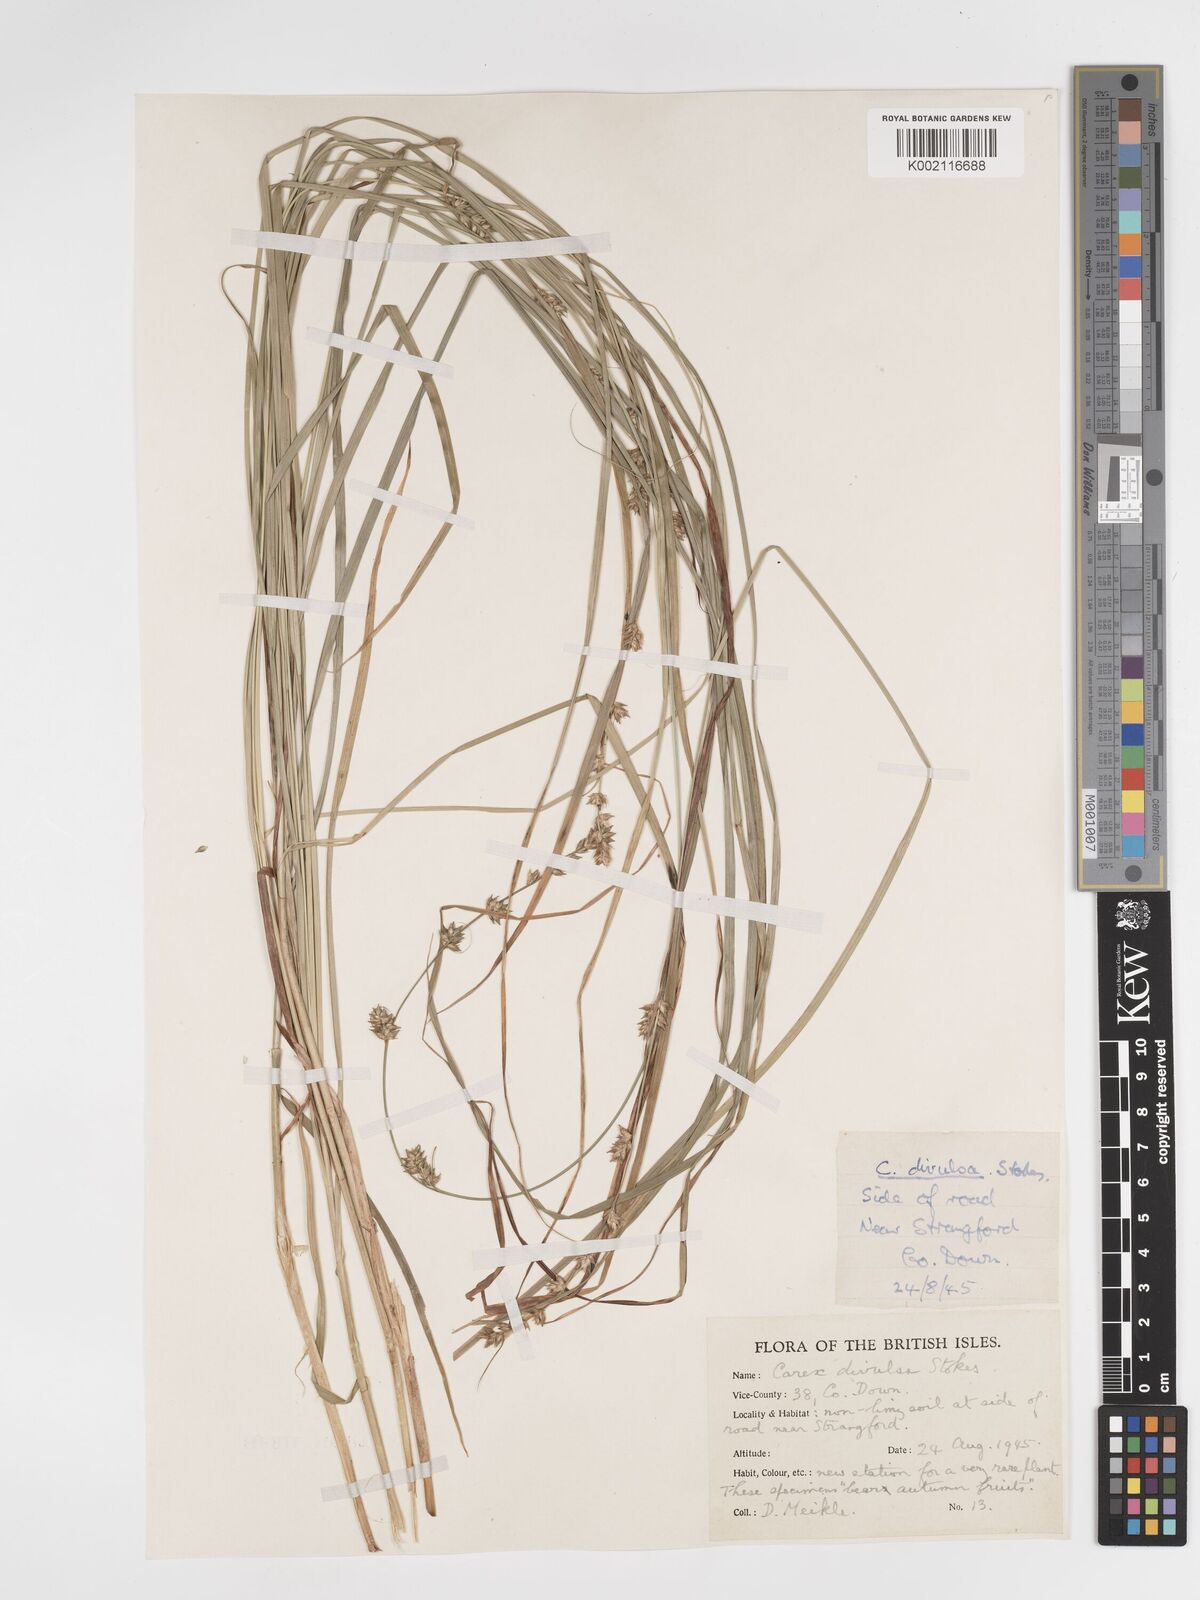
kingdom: Plantae
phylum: Tracheophyta
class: Liliopsida
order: Poales
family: Cyperaceae
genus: Carex
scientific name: Carex divulsa
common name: Grassland sedge
